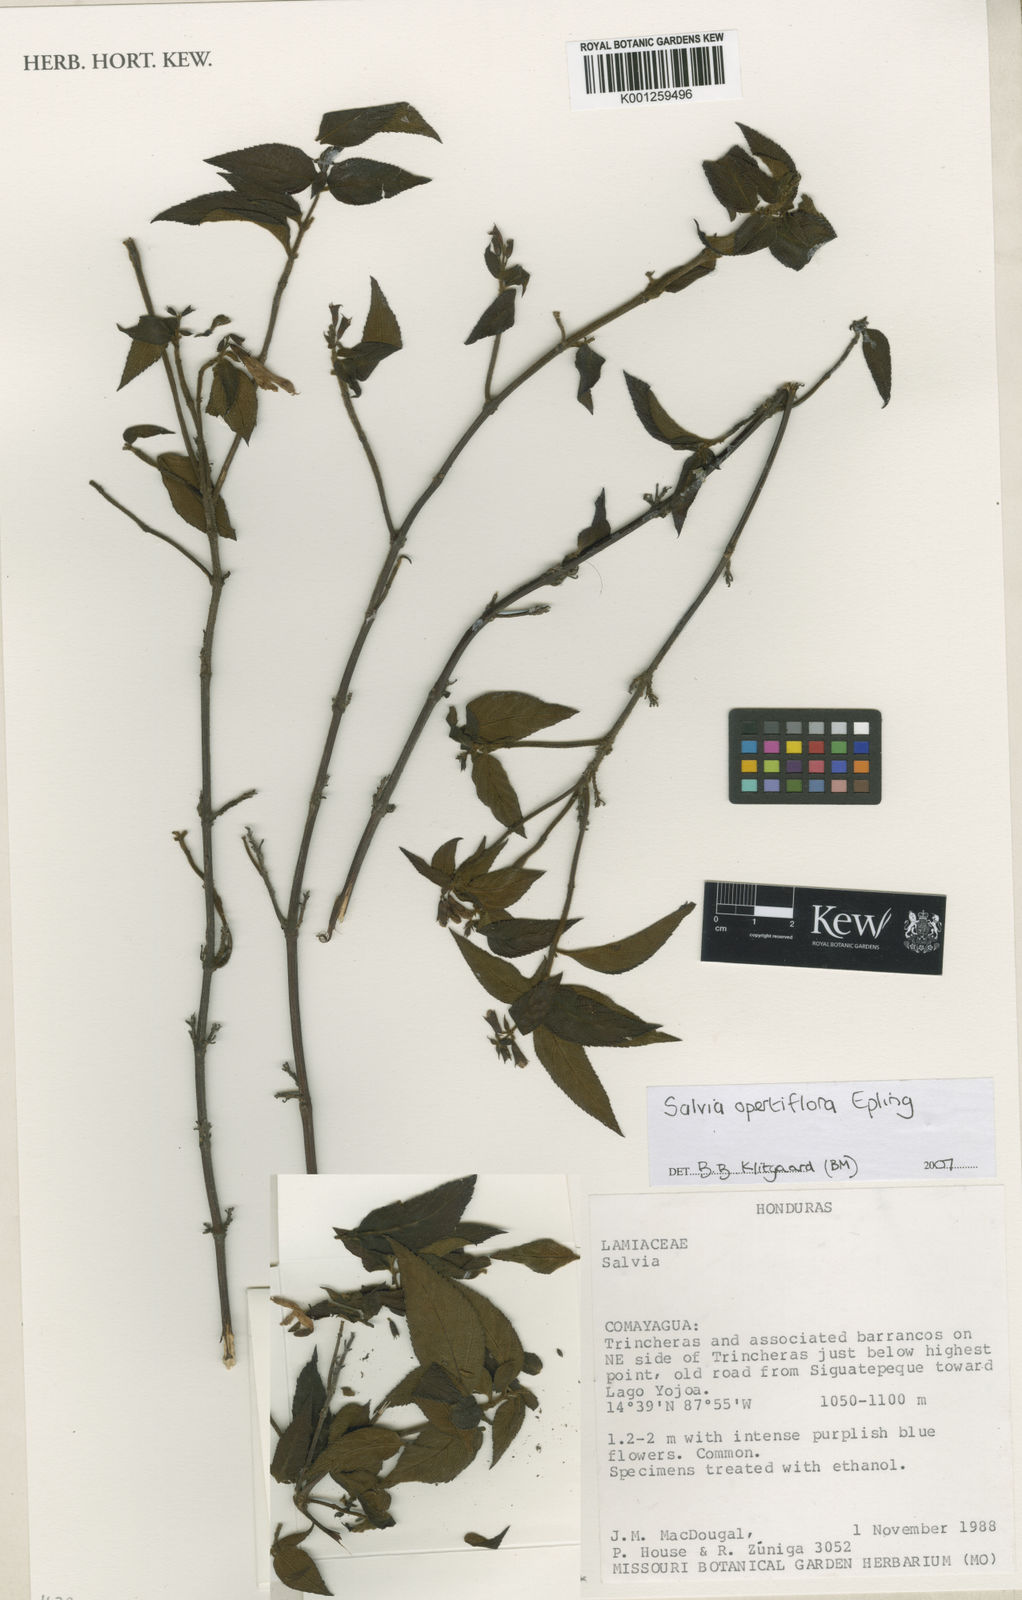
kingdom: Plantae
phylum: Tracheophyta
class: Magnoliopsida
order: Lamiales
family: Lamiaceae
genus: Salvia
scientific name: Salvia opertiflora
